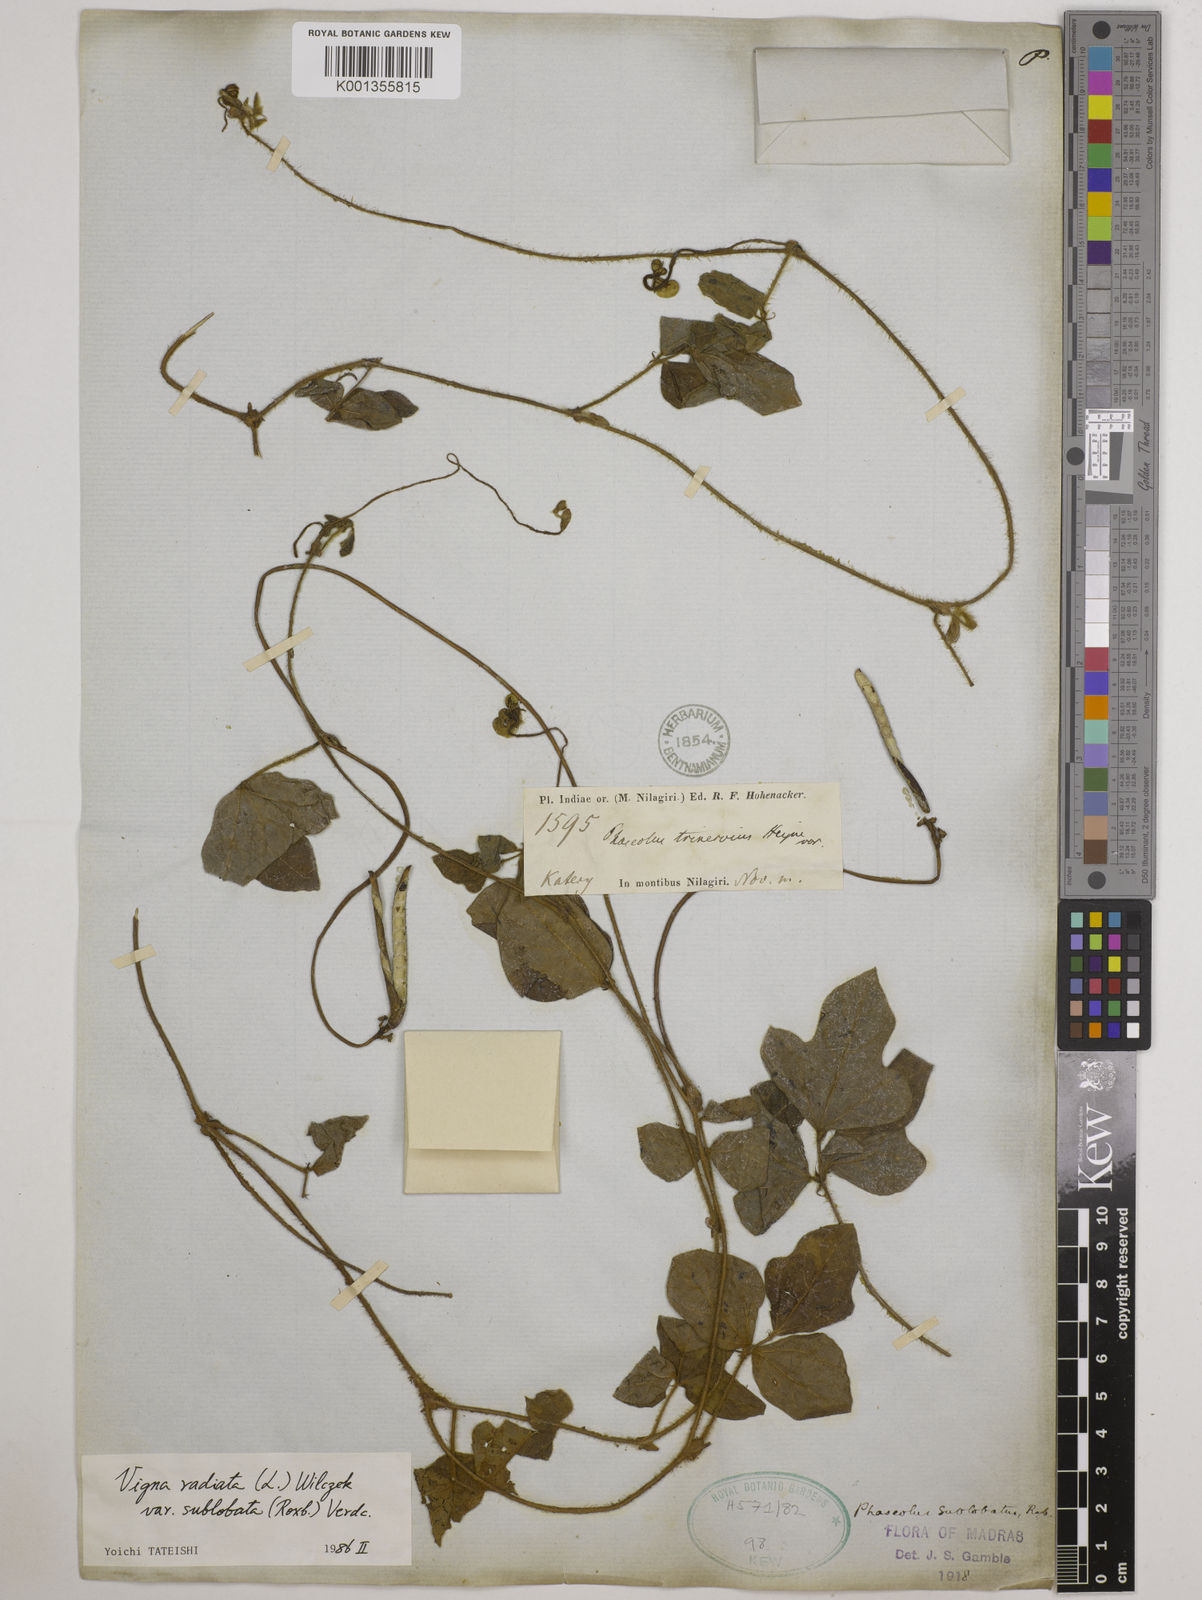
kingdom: Plantae
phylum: Tracheophyta
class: Magnoliopsida
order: Fabales
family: Fabaceae
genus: Vigna
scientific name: Vigna radiata
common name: Mung-bean
